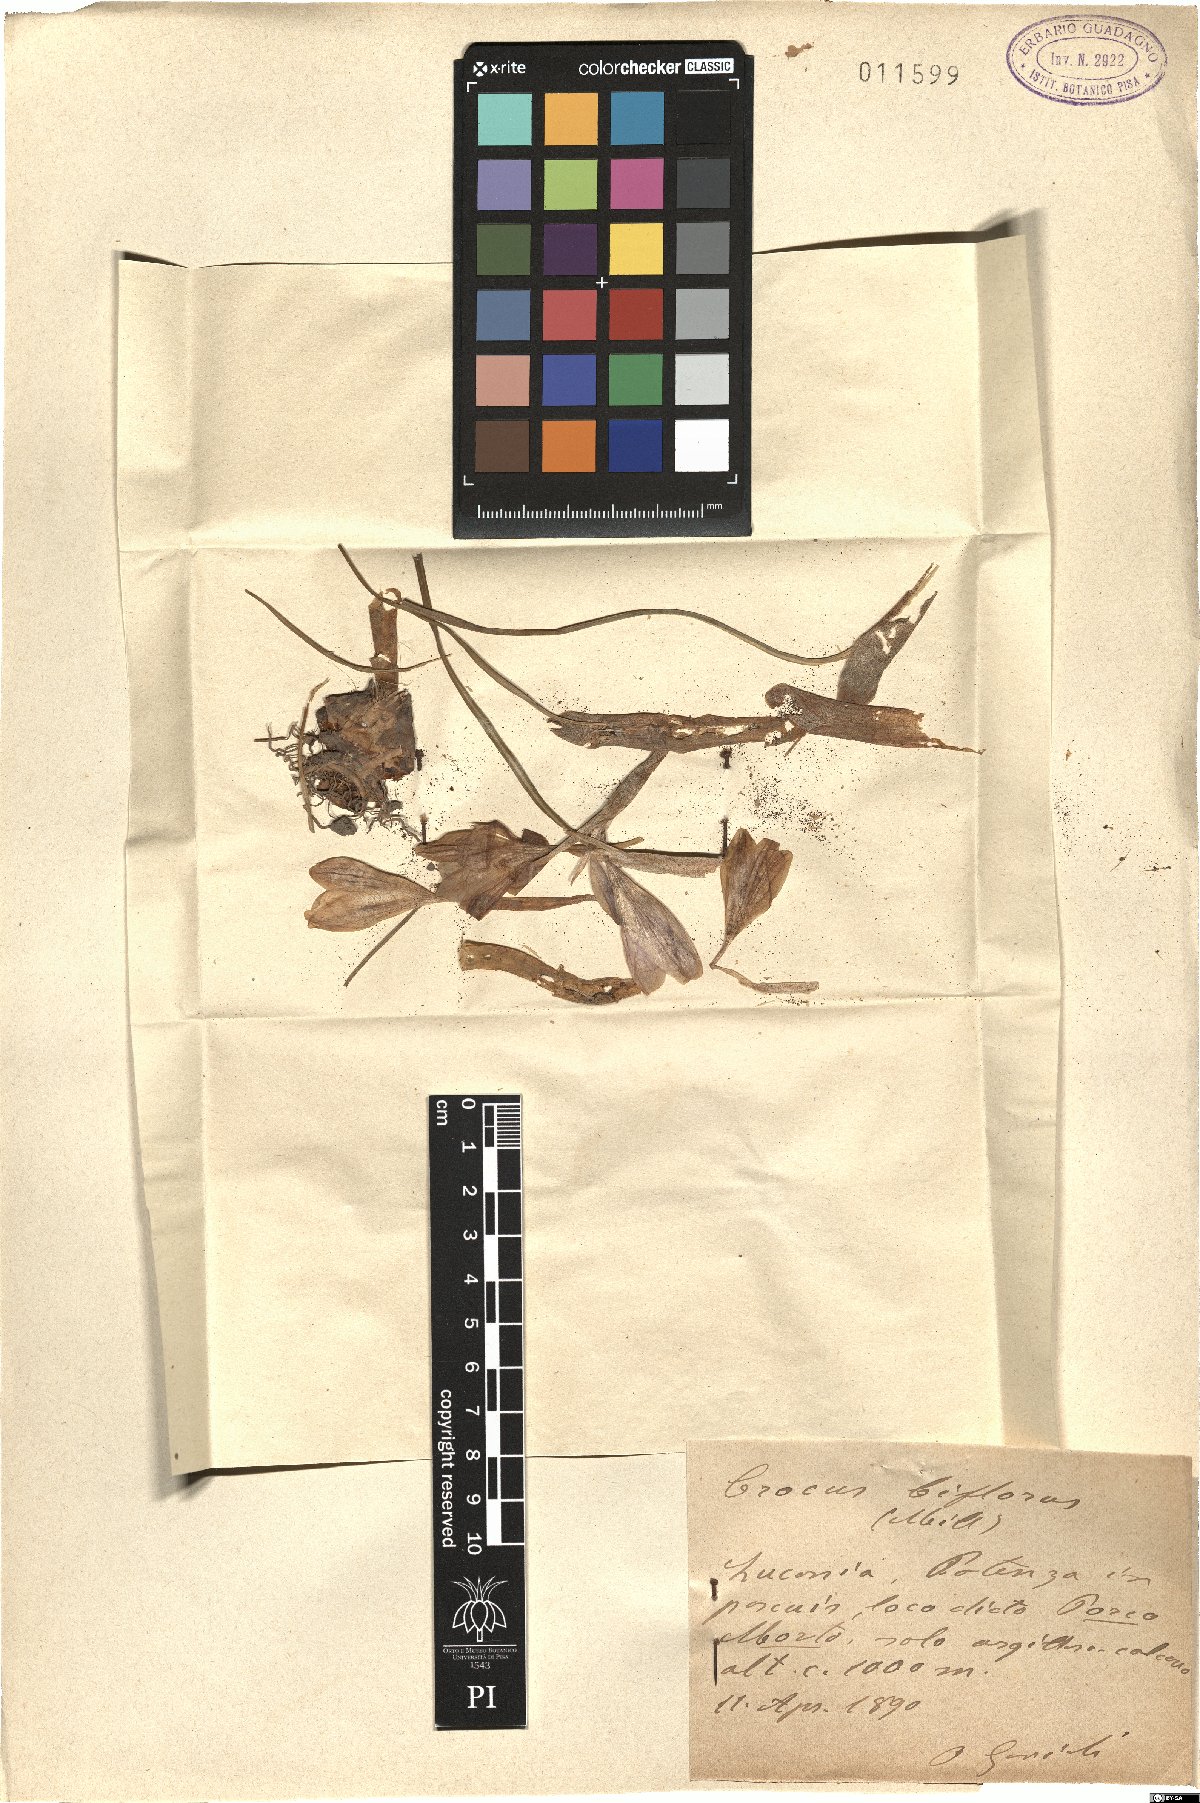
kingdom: Plantae
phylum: Tracheophyta
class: Liliopsida
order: Asparagales
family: Iridaceae
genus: Crocus
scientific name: Crocus biflorus
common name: Silvery crocus
